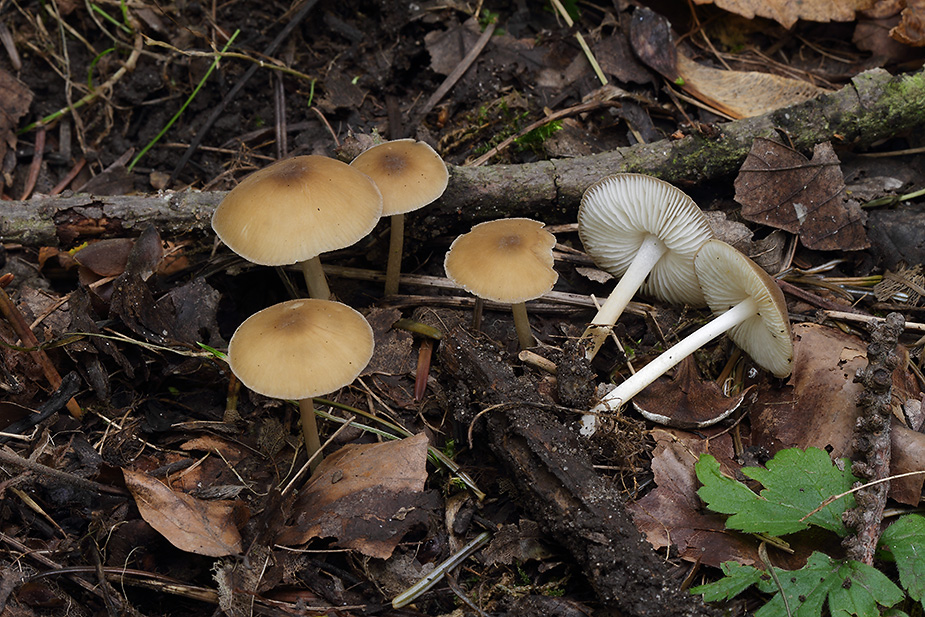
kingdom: Fungi
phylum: Basidiomycota
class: Agaricomycetes
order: Agaricales
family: Porotheleaceae
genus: Hydropodia
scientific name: Hydropodia subalpina
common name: vår-fnugfod
